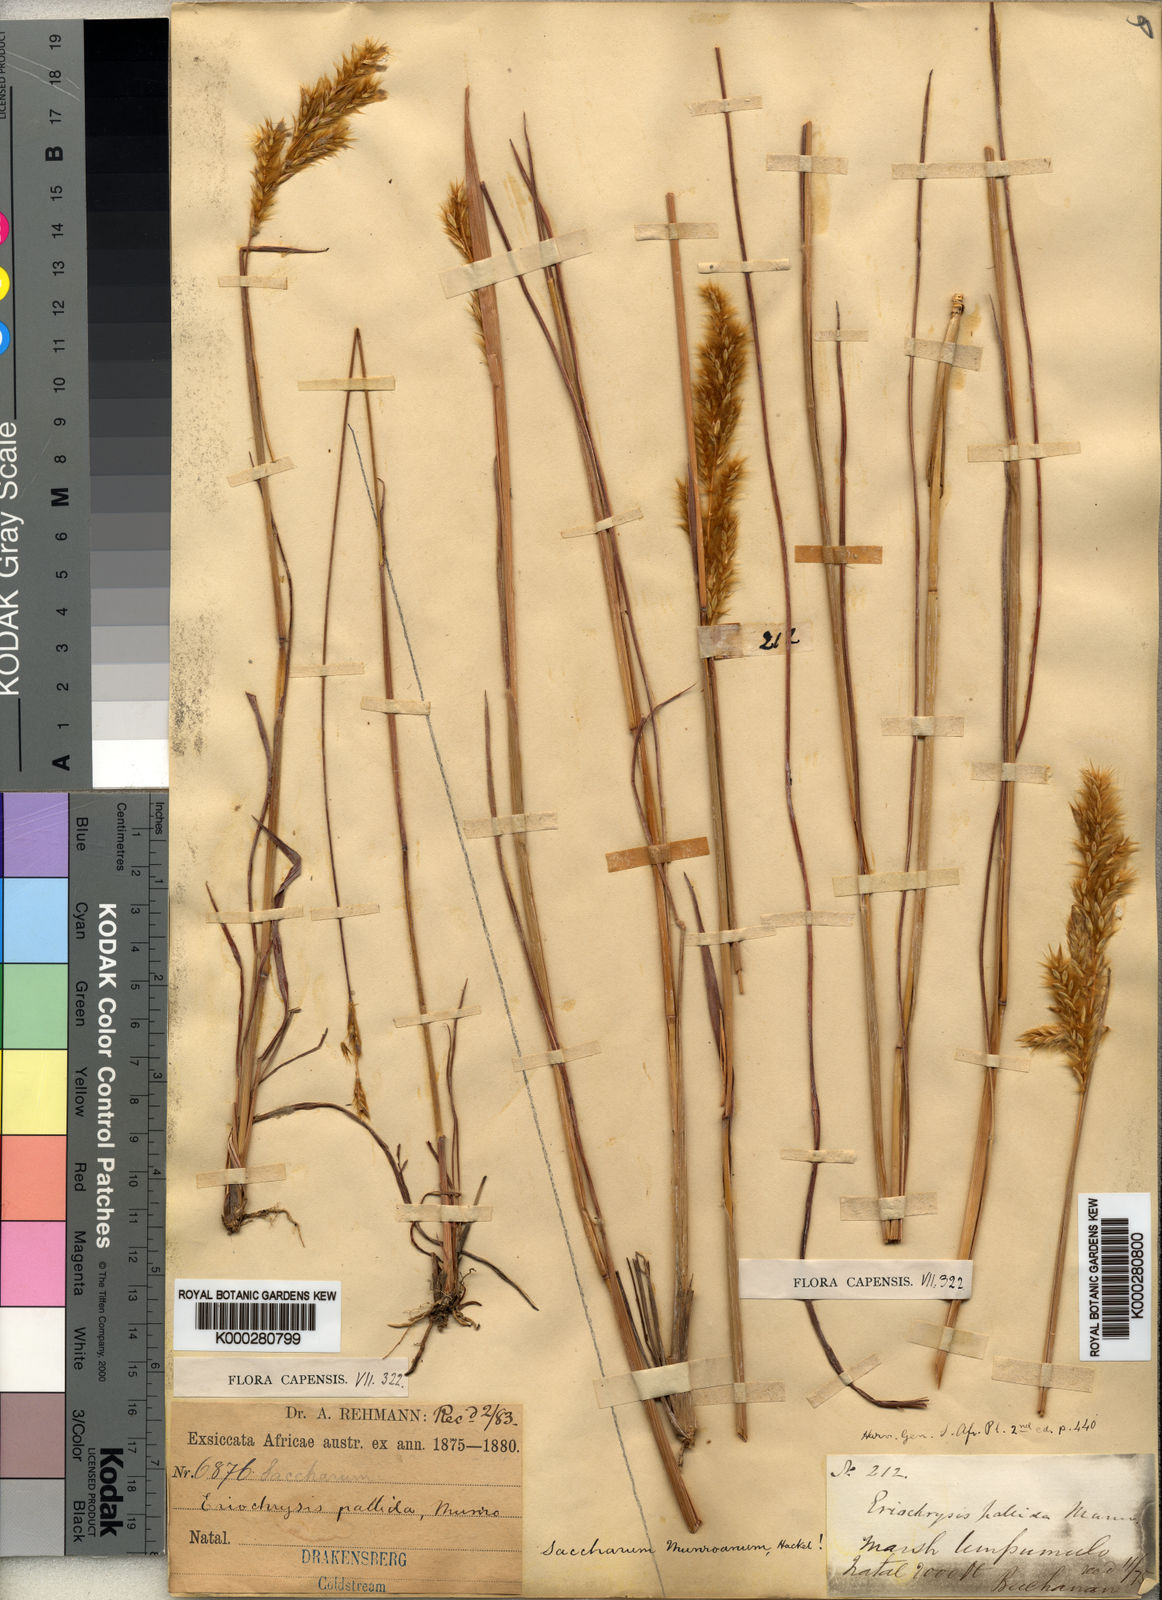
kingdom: Plantae
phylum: Tracheophyta
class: Liliopsida
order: Poales
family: Poaceae
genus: Eriochrysis
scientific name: Eriochrysis pallida
